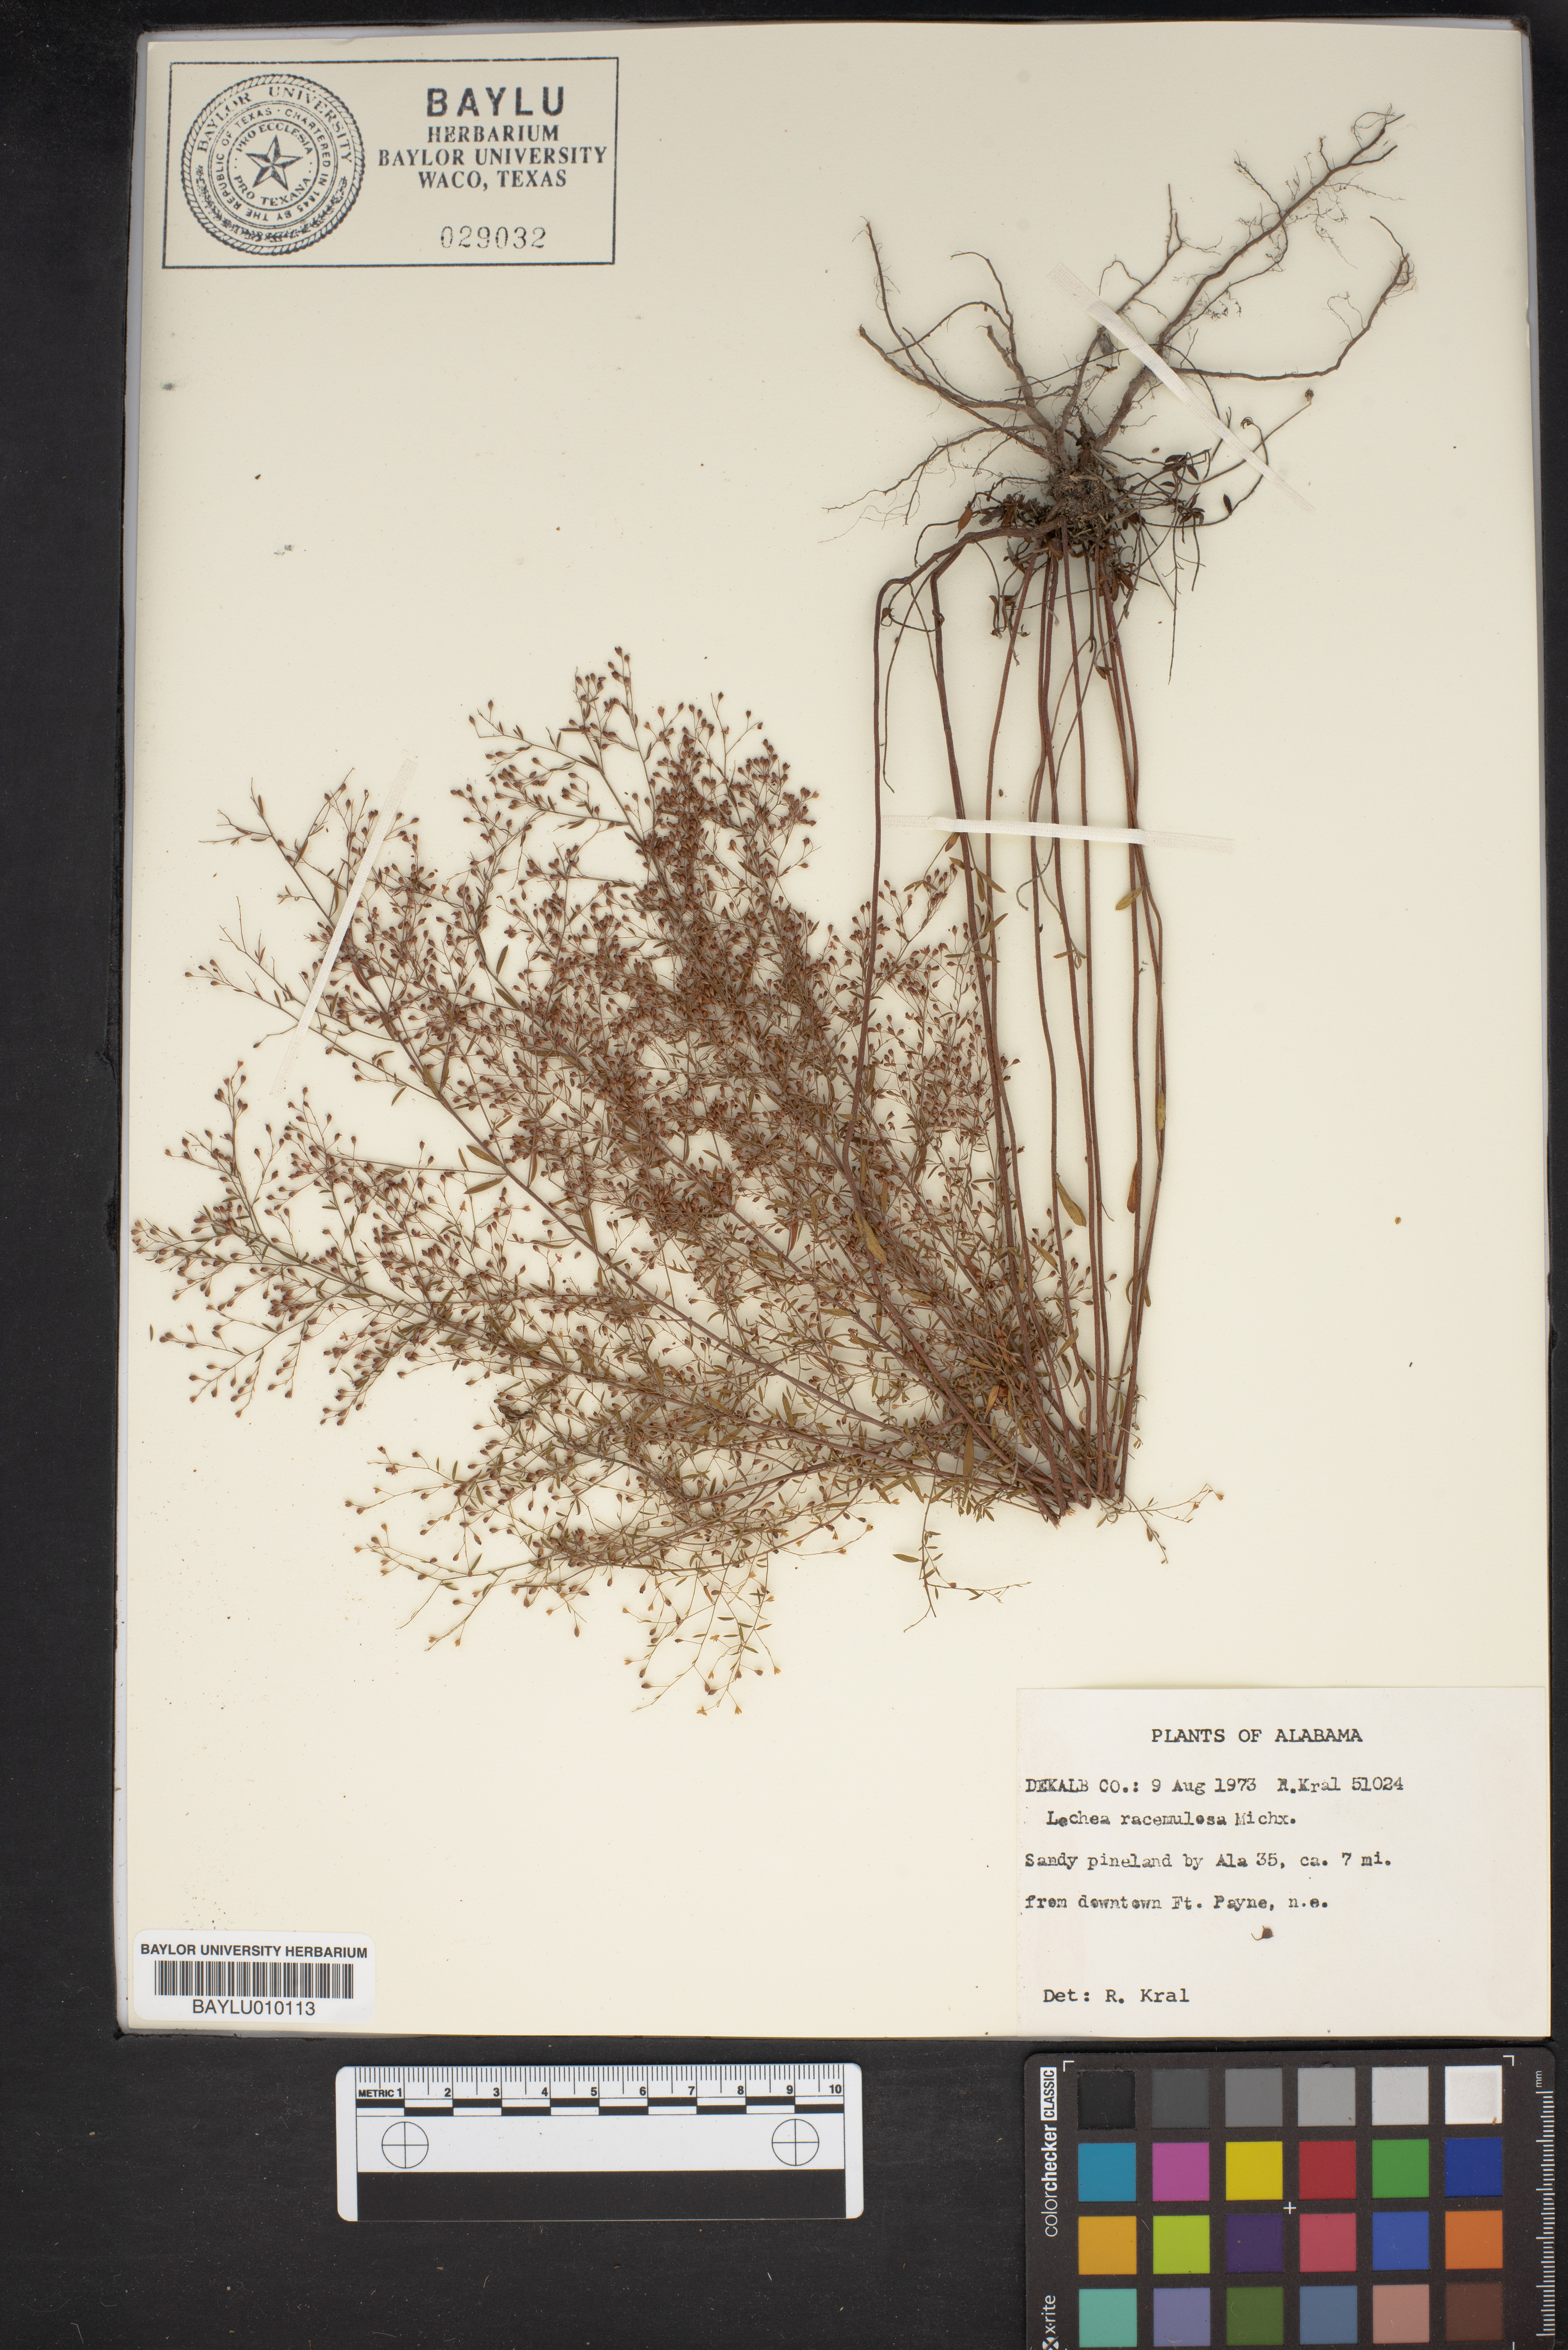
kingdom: Plantae
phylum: Tracheophyta
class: Magnoliopsida
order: Malvales
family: Cistaceae
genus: Lechea
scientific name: Lechea racemulosa
